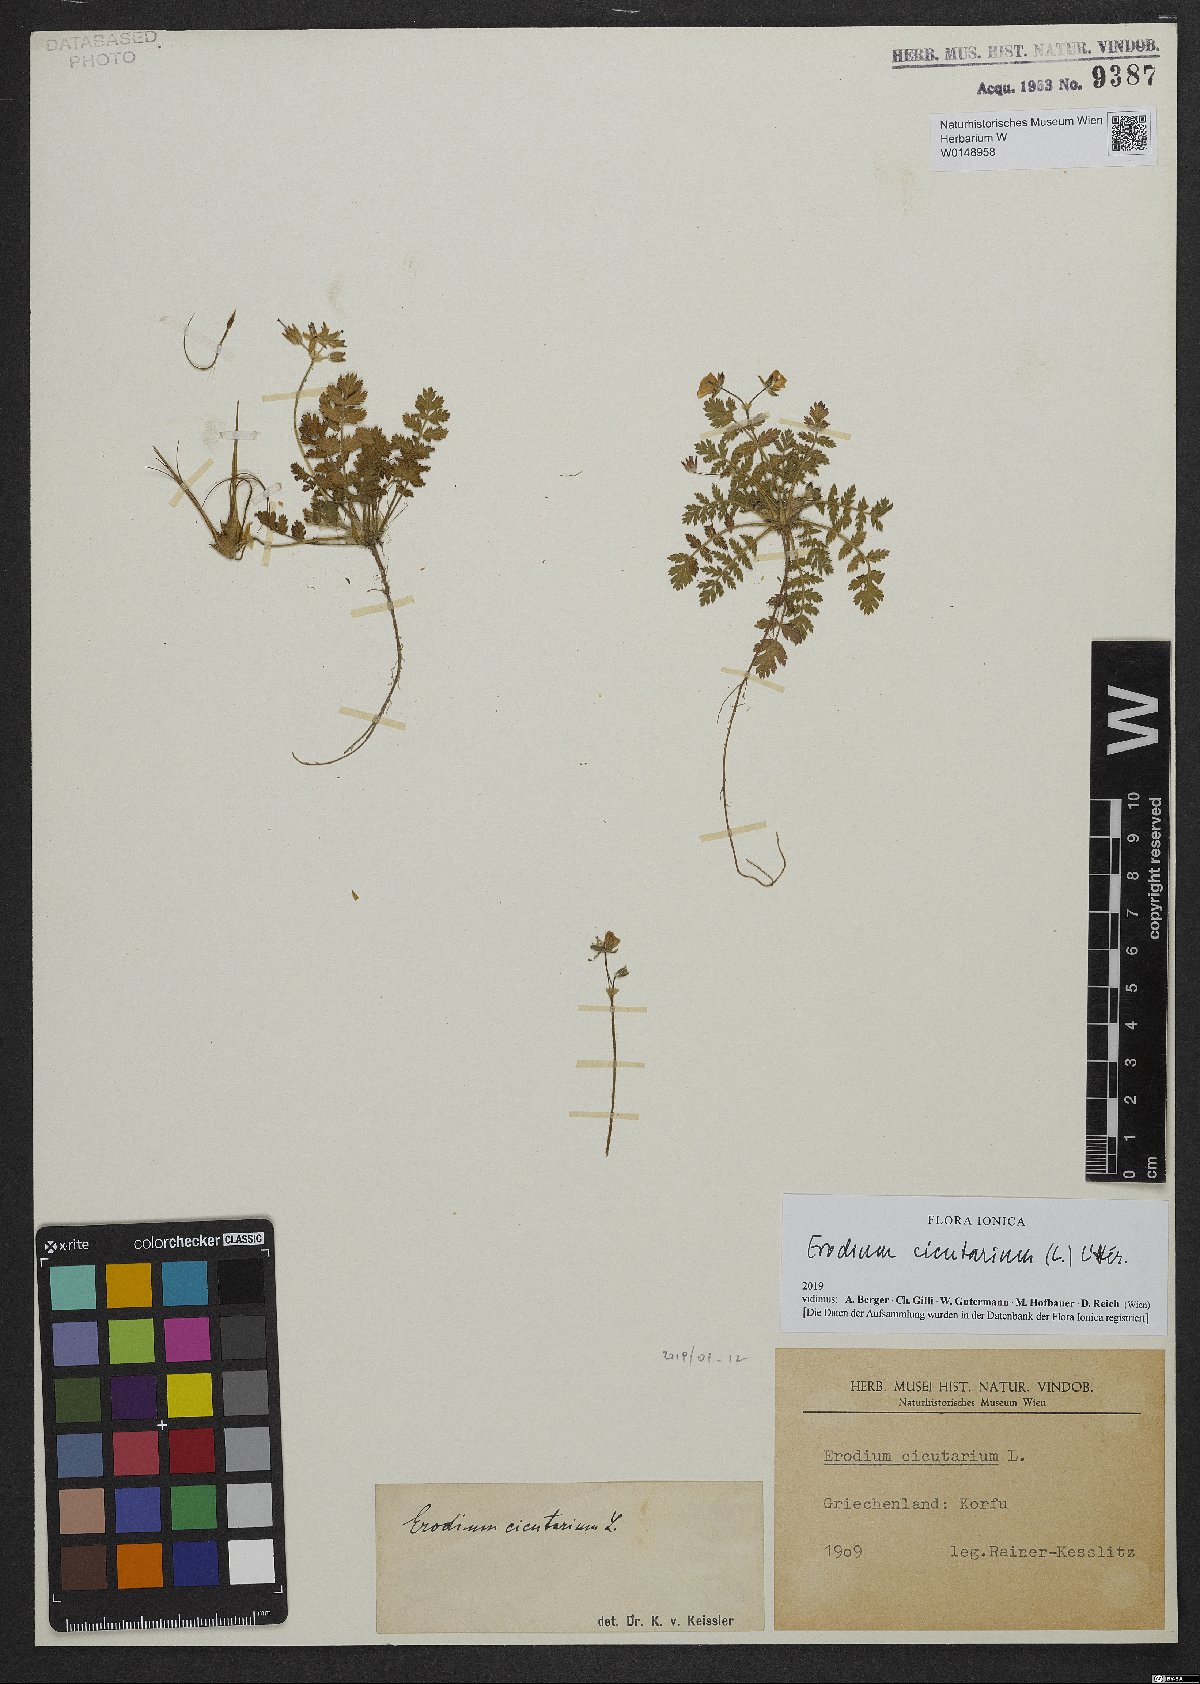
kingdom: Plantae
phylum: Tracheophyta
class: Magnoliopsida
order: Geraniales
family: Geraniaceae
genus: Erodium
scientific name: Erodium cicutarium
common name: Common stork's-bill
